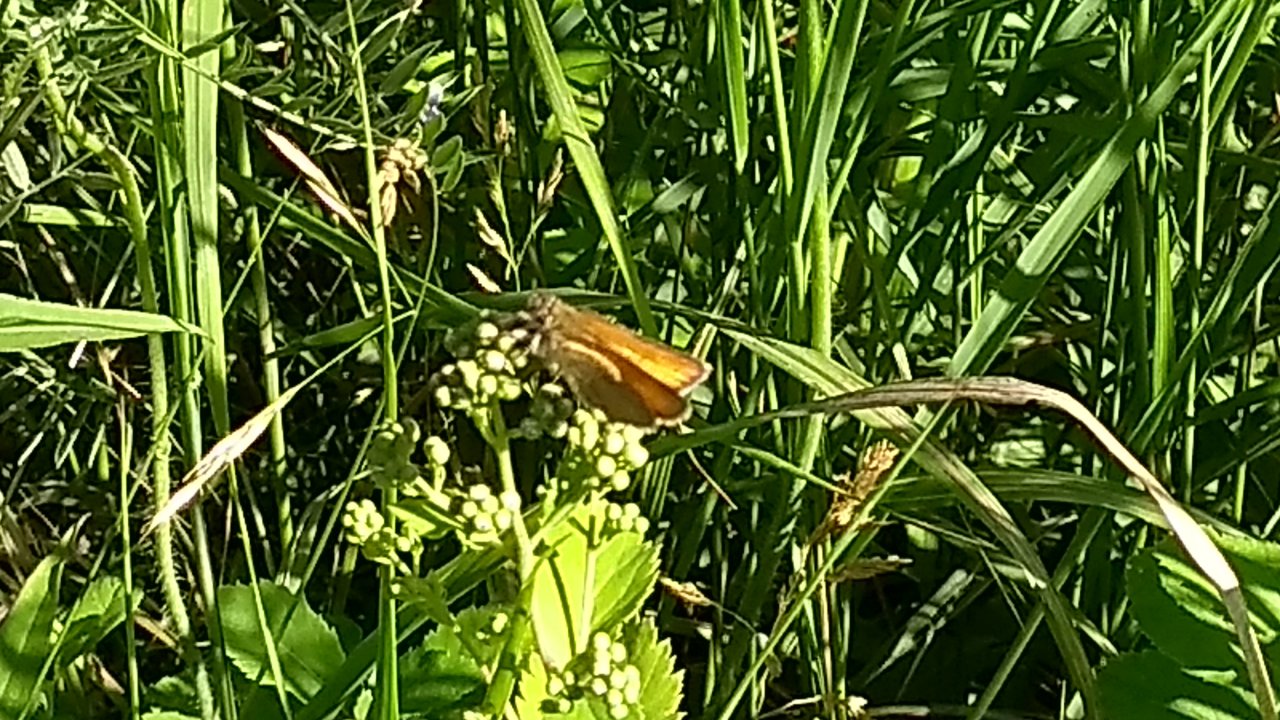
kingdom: Animalia
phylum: Arthropoda
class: Insecta
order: Lepidoptera
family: Hesperiidae
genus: Thymelicus
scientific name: Thymelicus lineola
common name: European Skipper
